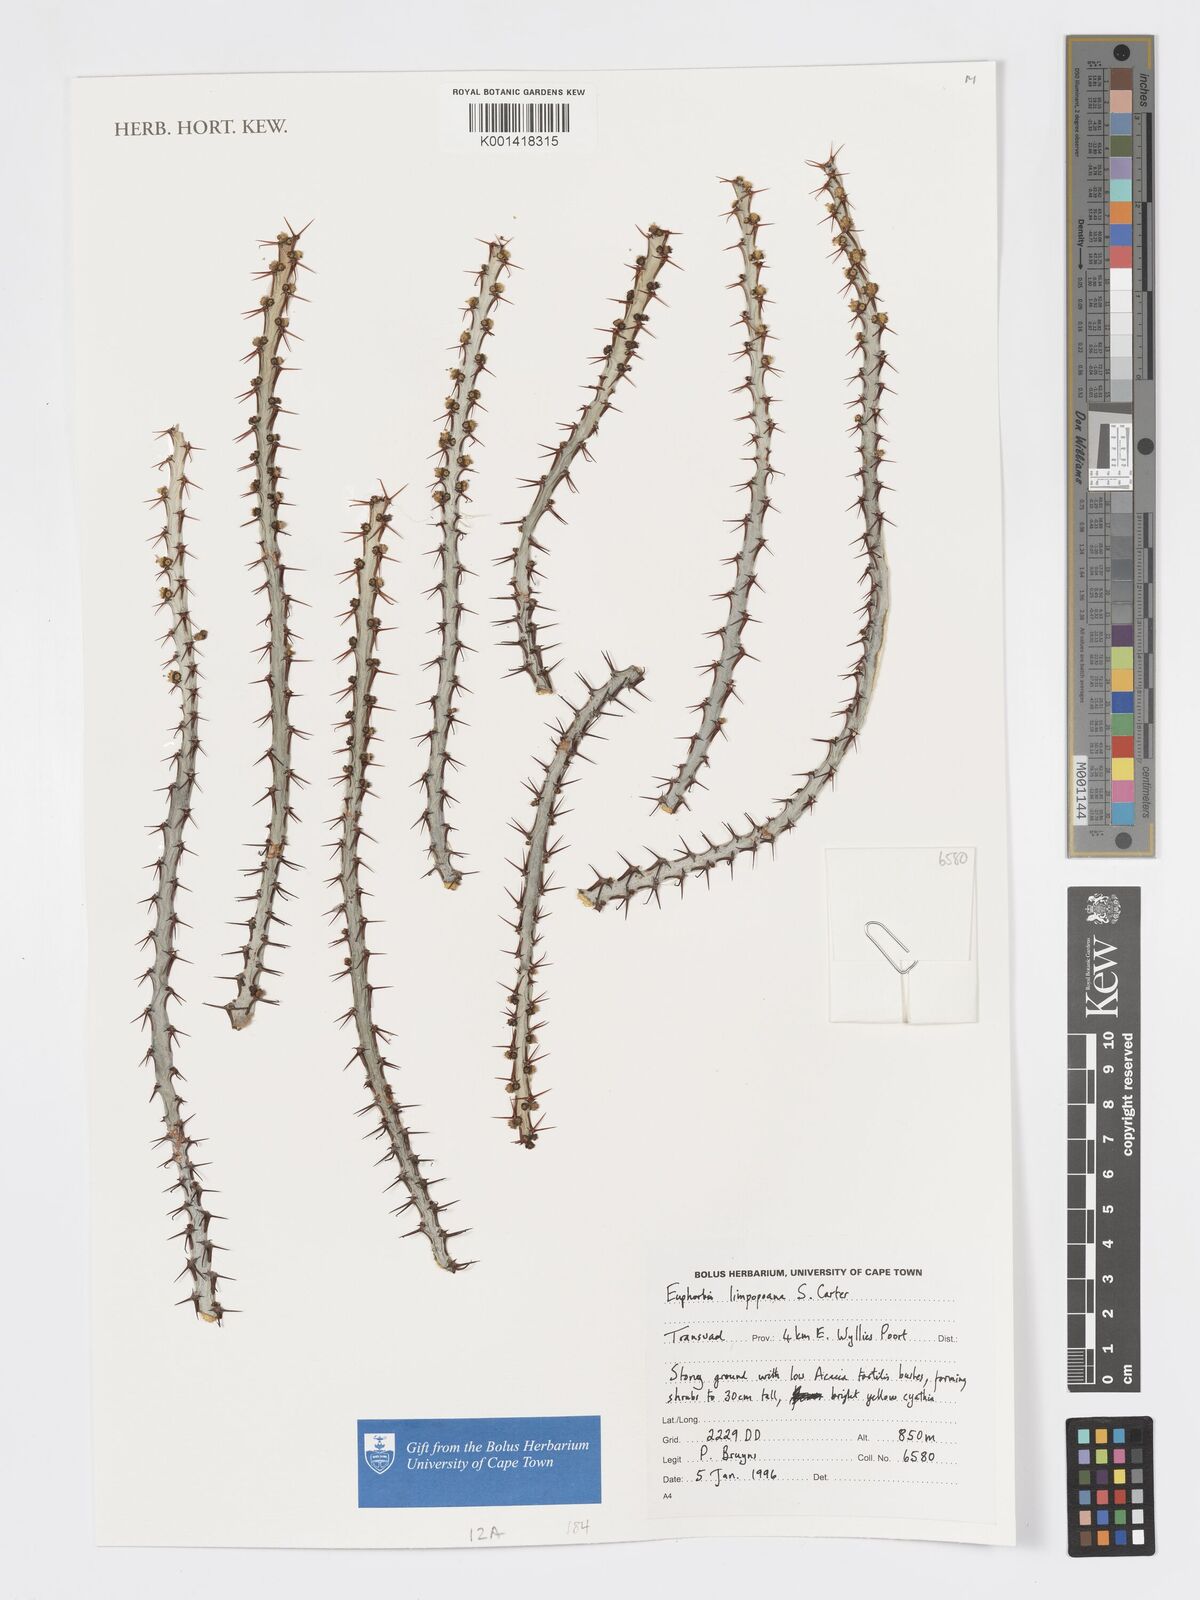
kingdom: Plantae
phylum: Tracheophyta
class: Magnoliopsida
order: Malpighiales
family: Euphorbiaceae
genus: Euphorbia
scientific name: Euphorbia schinzii
